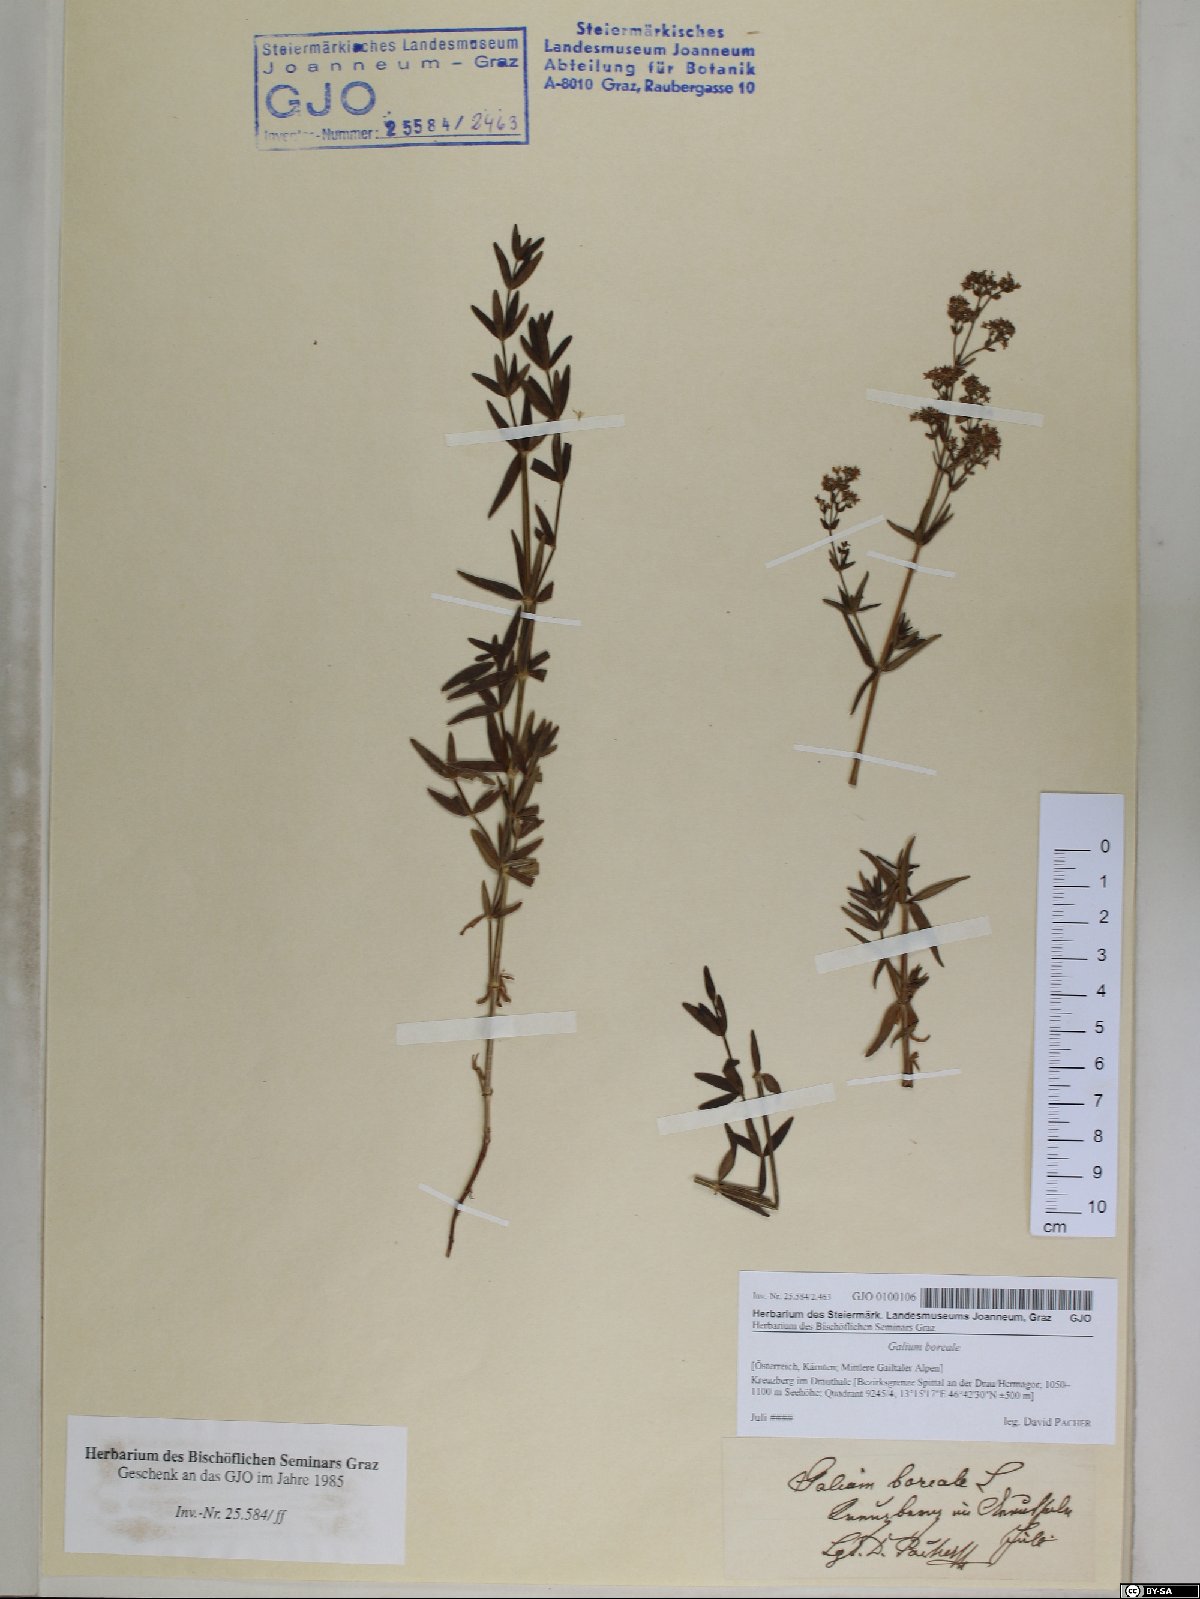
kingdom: Plantae
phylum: Tracheophyta
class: Magnoliopsida
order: Gentianales
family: Rubiaceae
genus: Galium
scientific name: Galium boreale
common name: Northern bedstraw
